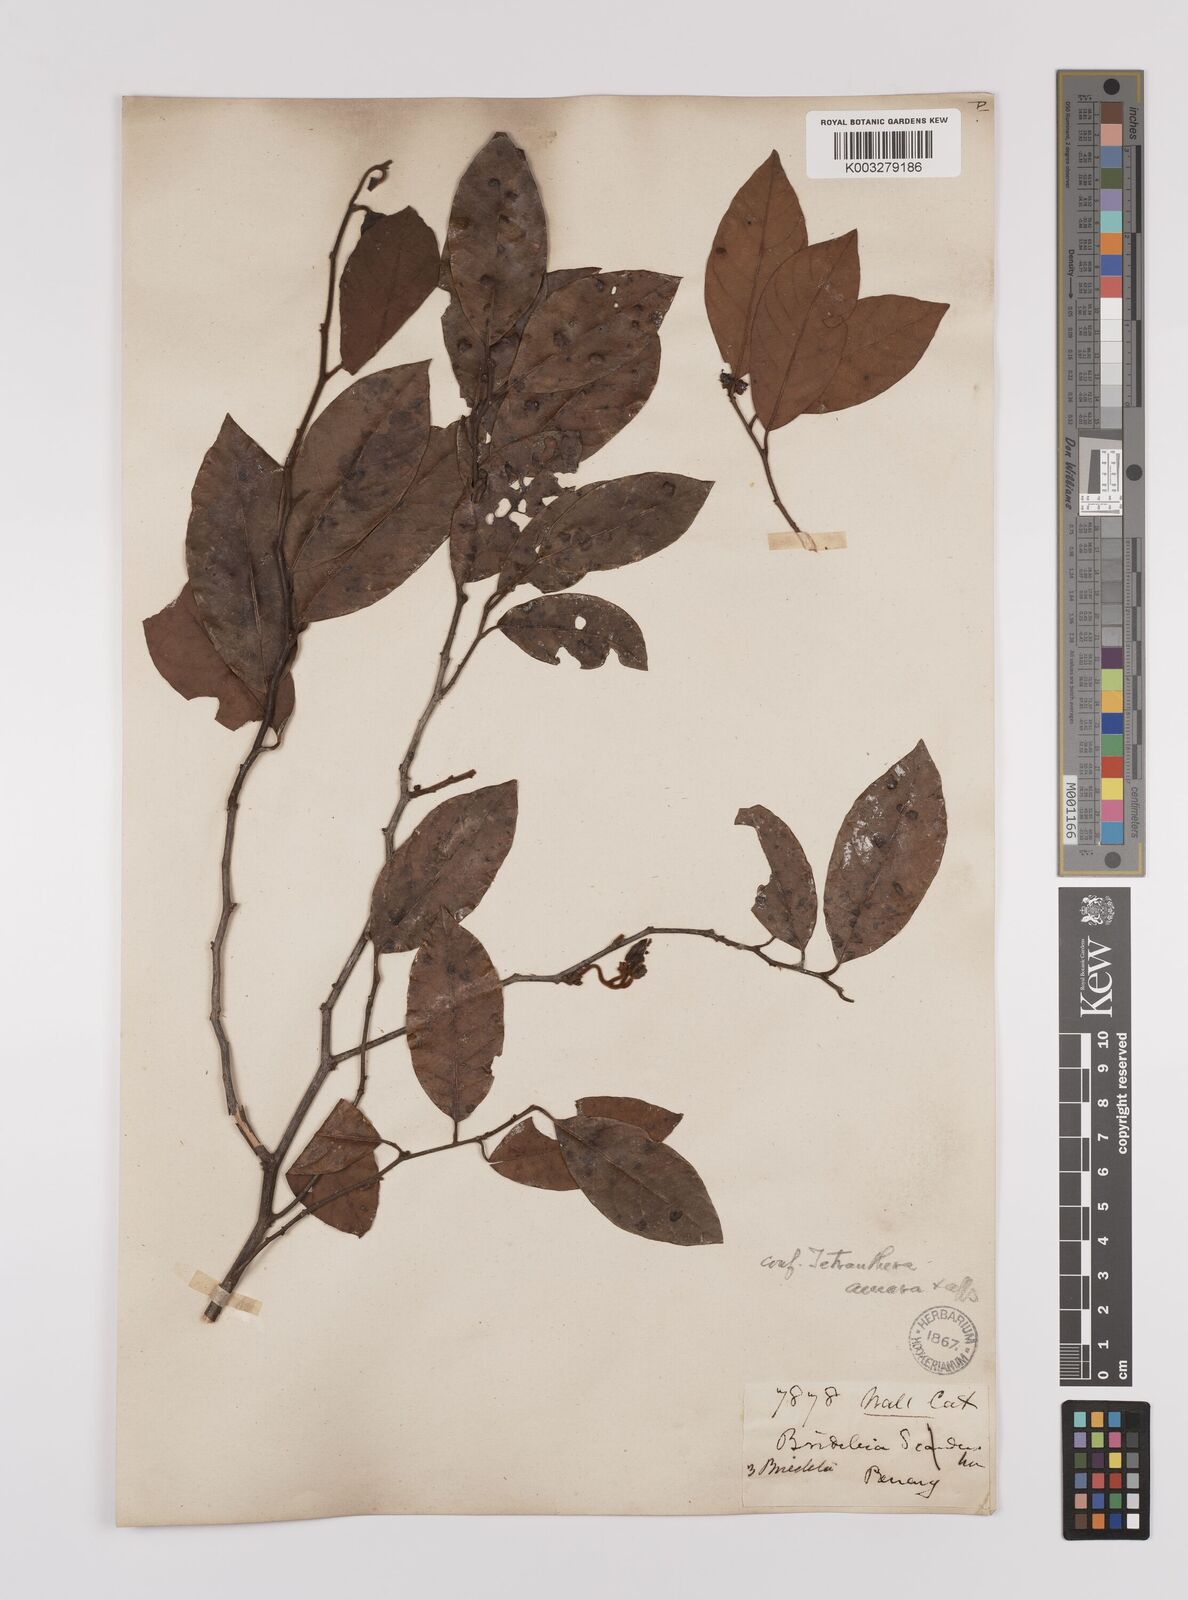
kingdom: Plantae
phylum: Tracheophyta
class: Magnoliopsida
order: Laurales
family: Lauraceae
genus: Litsea
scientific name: Litsea umbellata
